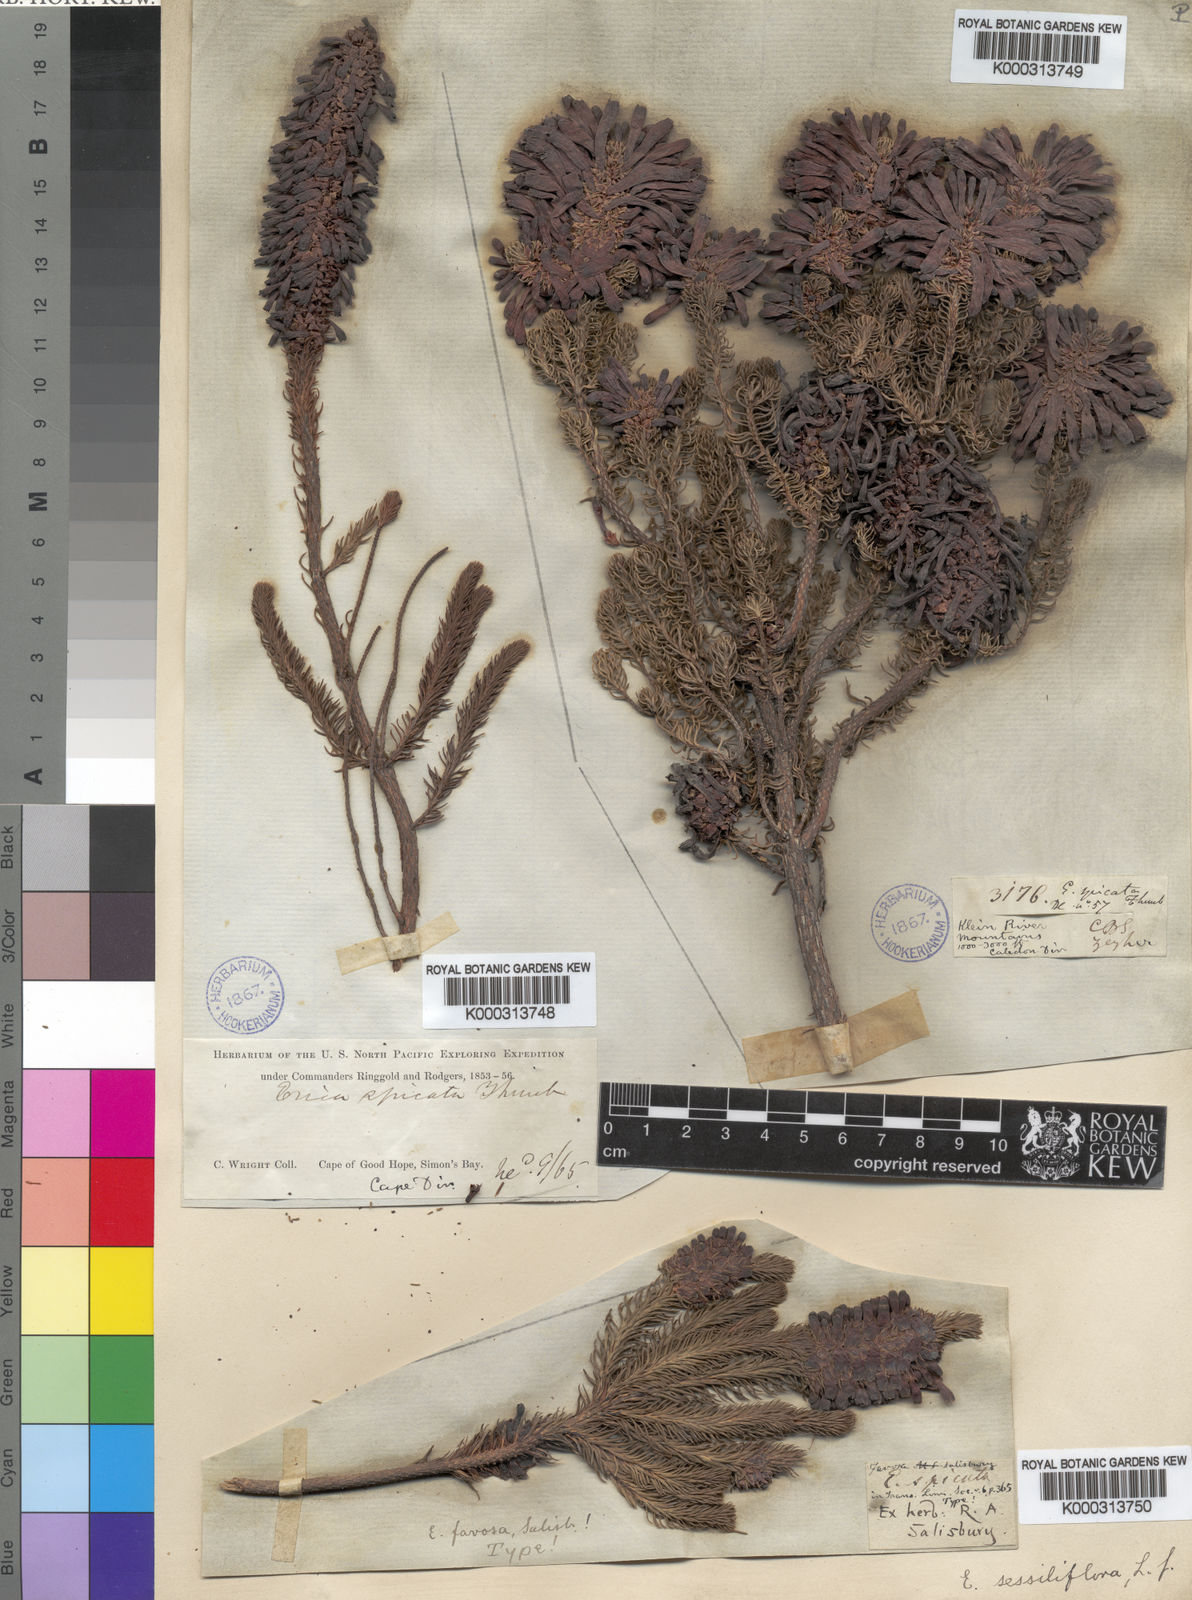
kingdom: Plantae
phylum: Tracheophyta
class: Magnoliopsida
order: Ericales
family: Ericaceae
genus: Erica
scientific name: Erica sessiliflora
